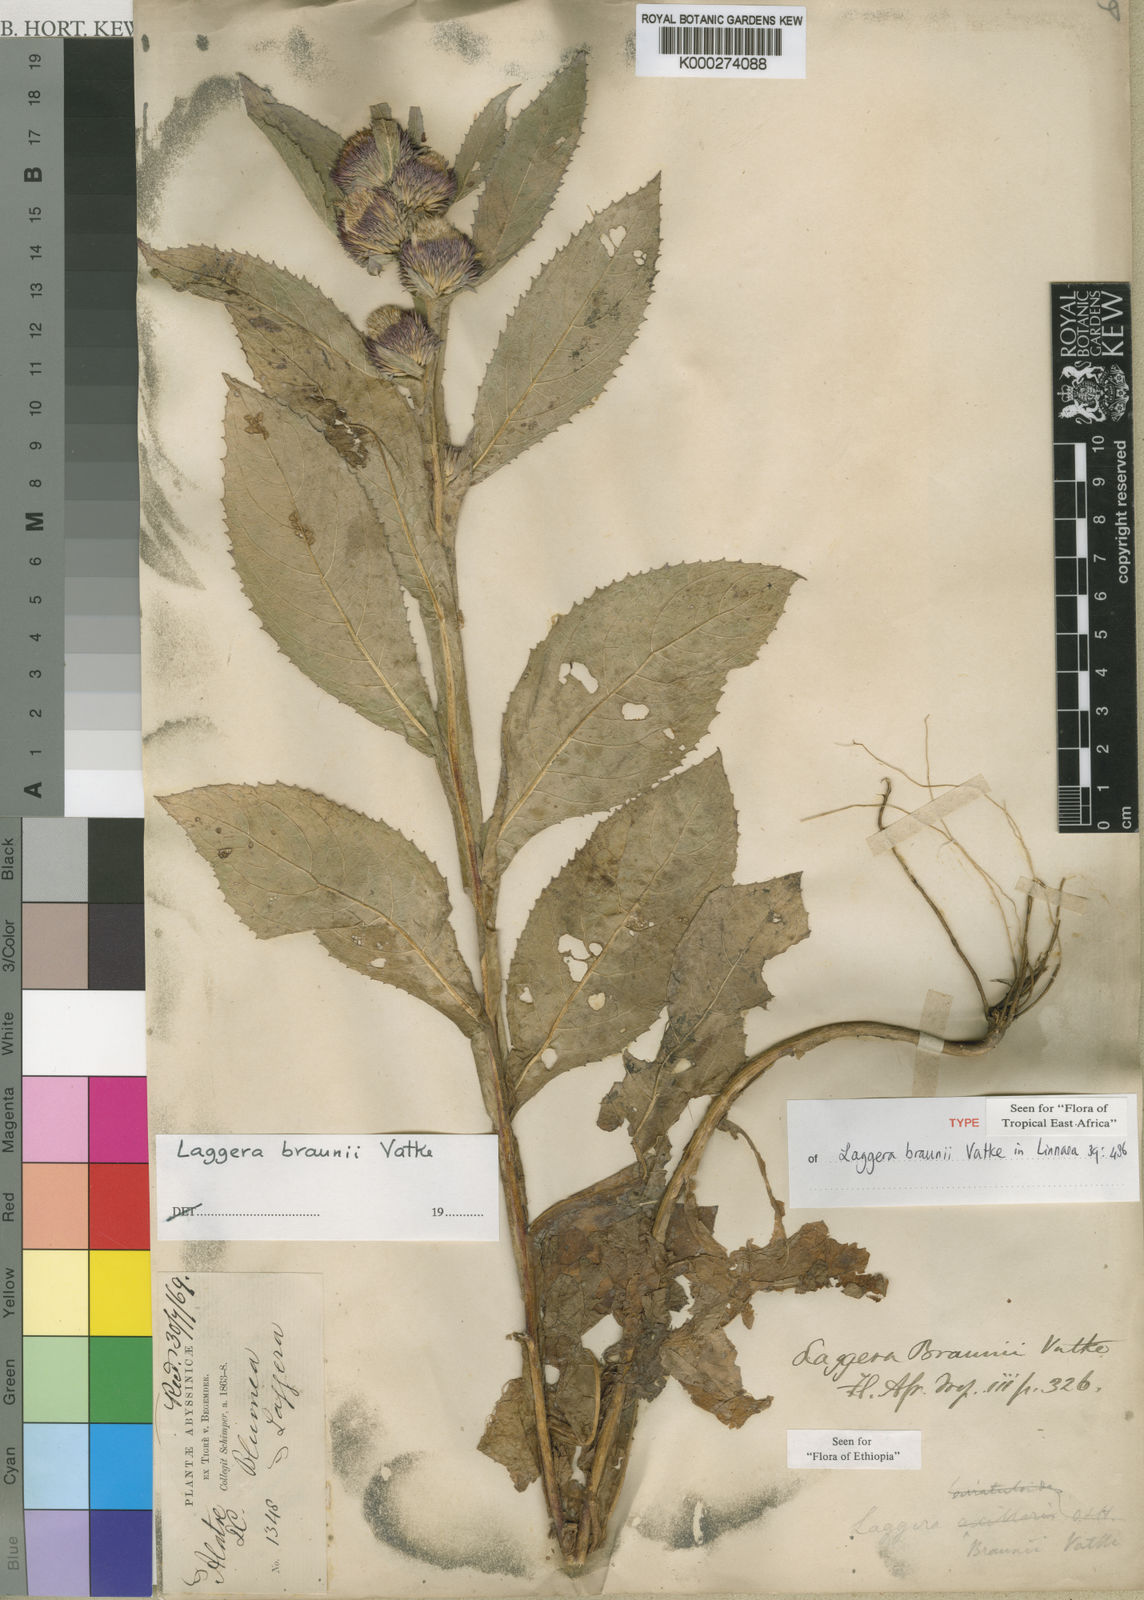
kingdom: Plantae
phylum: Tracheophyta
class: Magnoliopsida
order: Asterales
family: Asteraceae
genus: Laggera
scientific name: Laggera braunii
